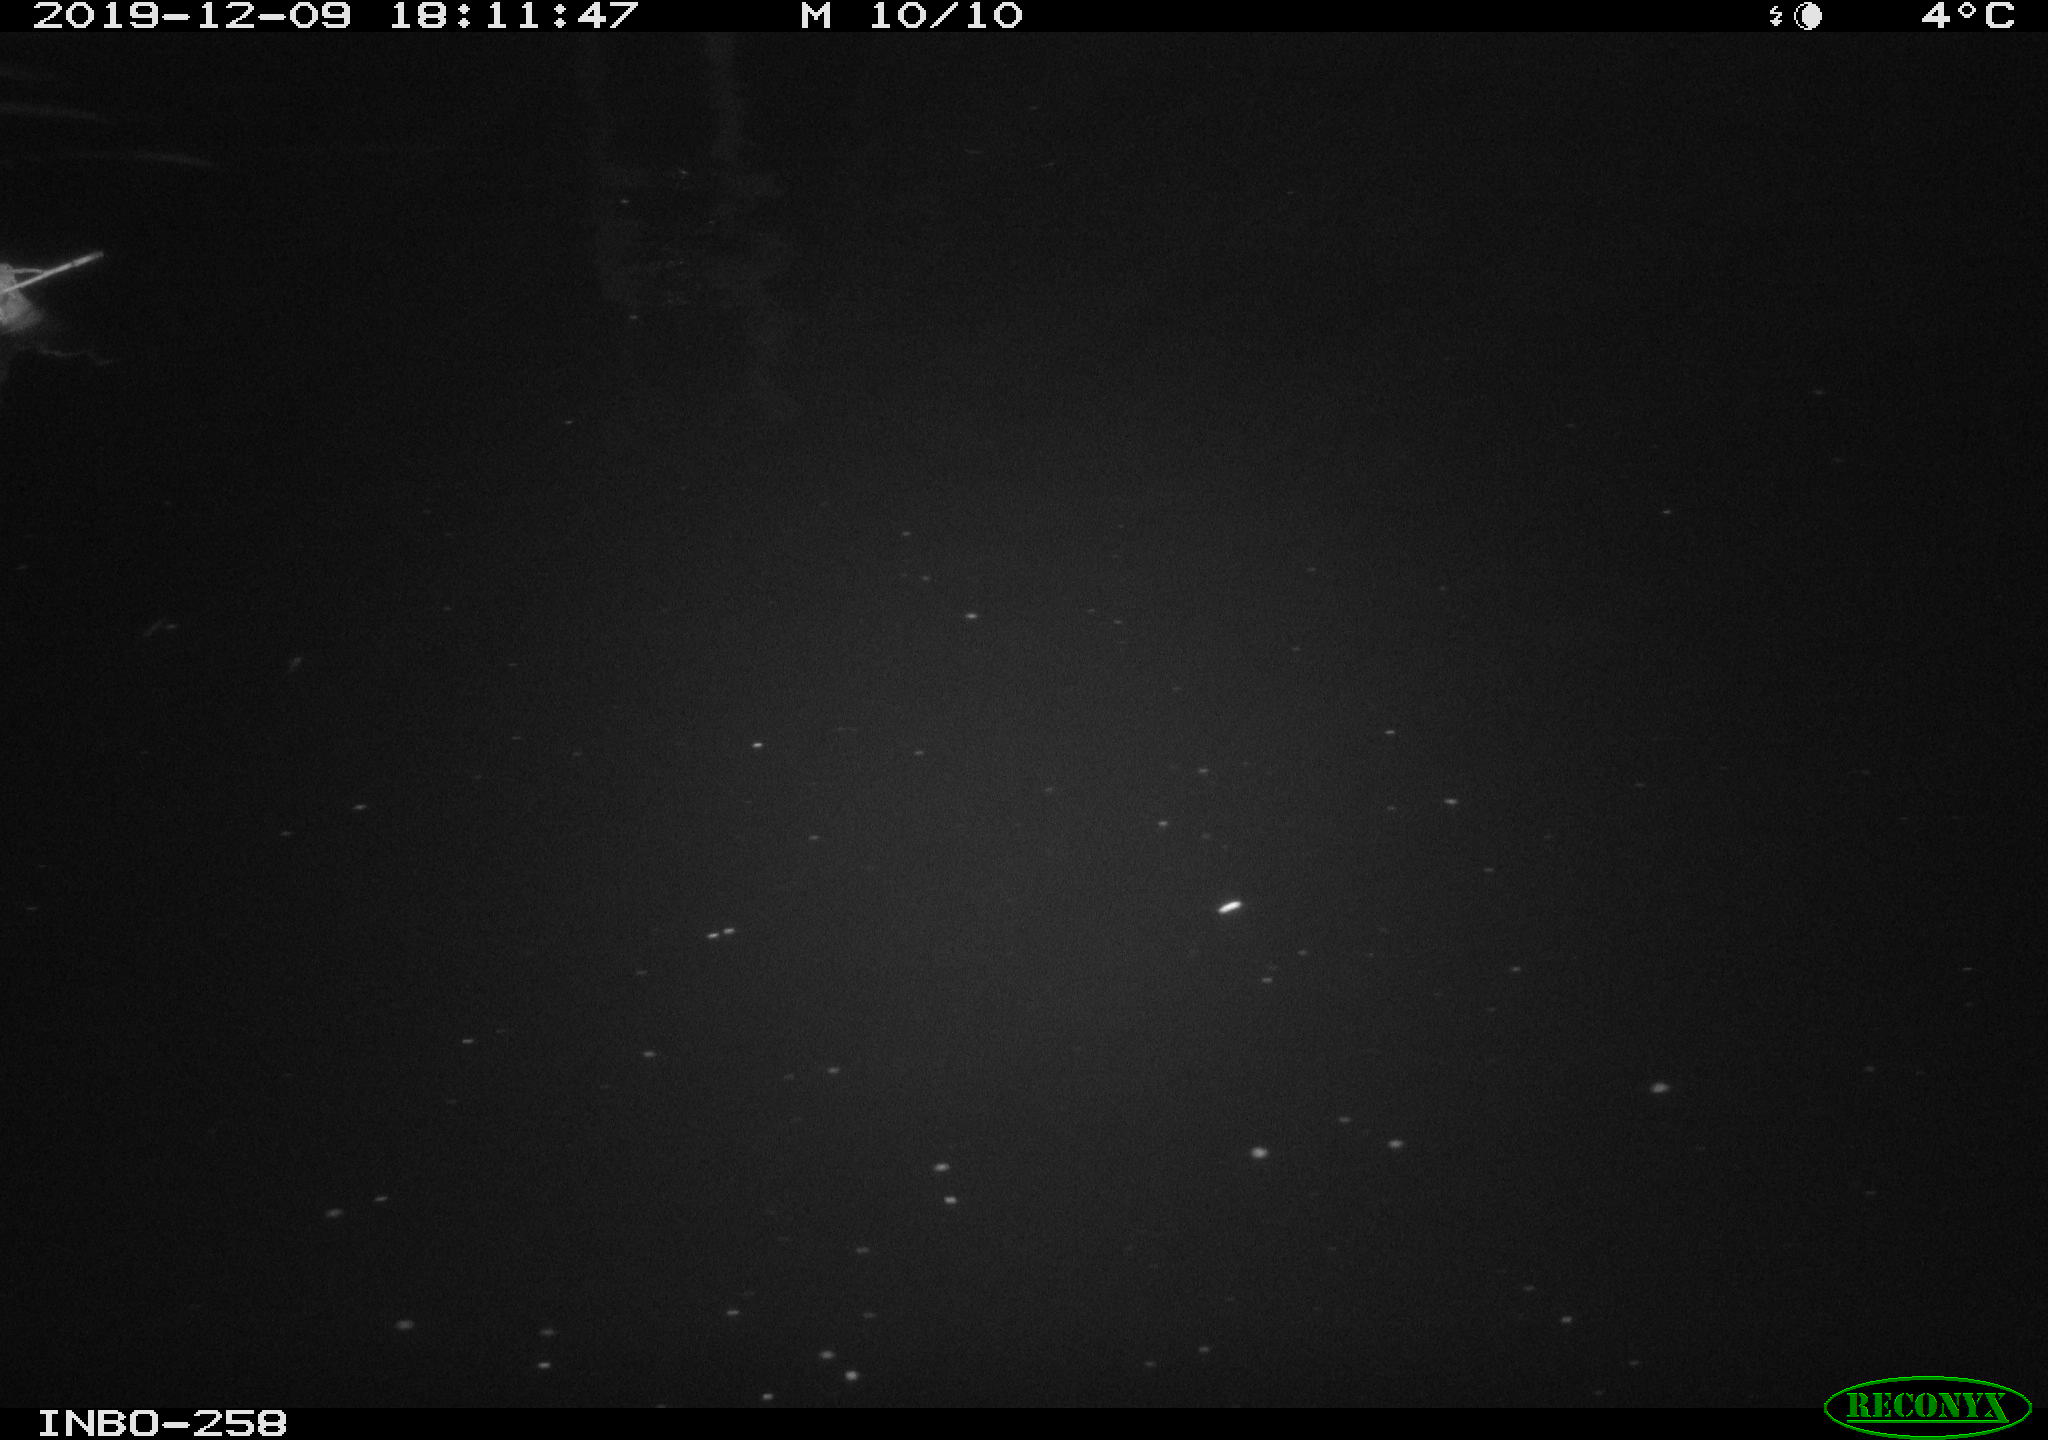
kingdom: Animalia
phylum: Chordata
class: Mammalia
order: Rodentia
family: Muridae
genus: Rattus
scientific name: Rattus norvegicus
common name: Brown rat
